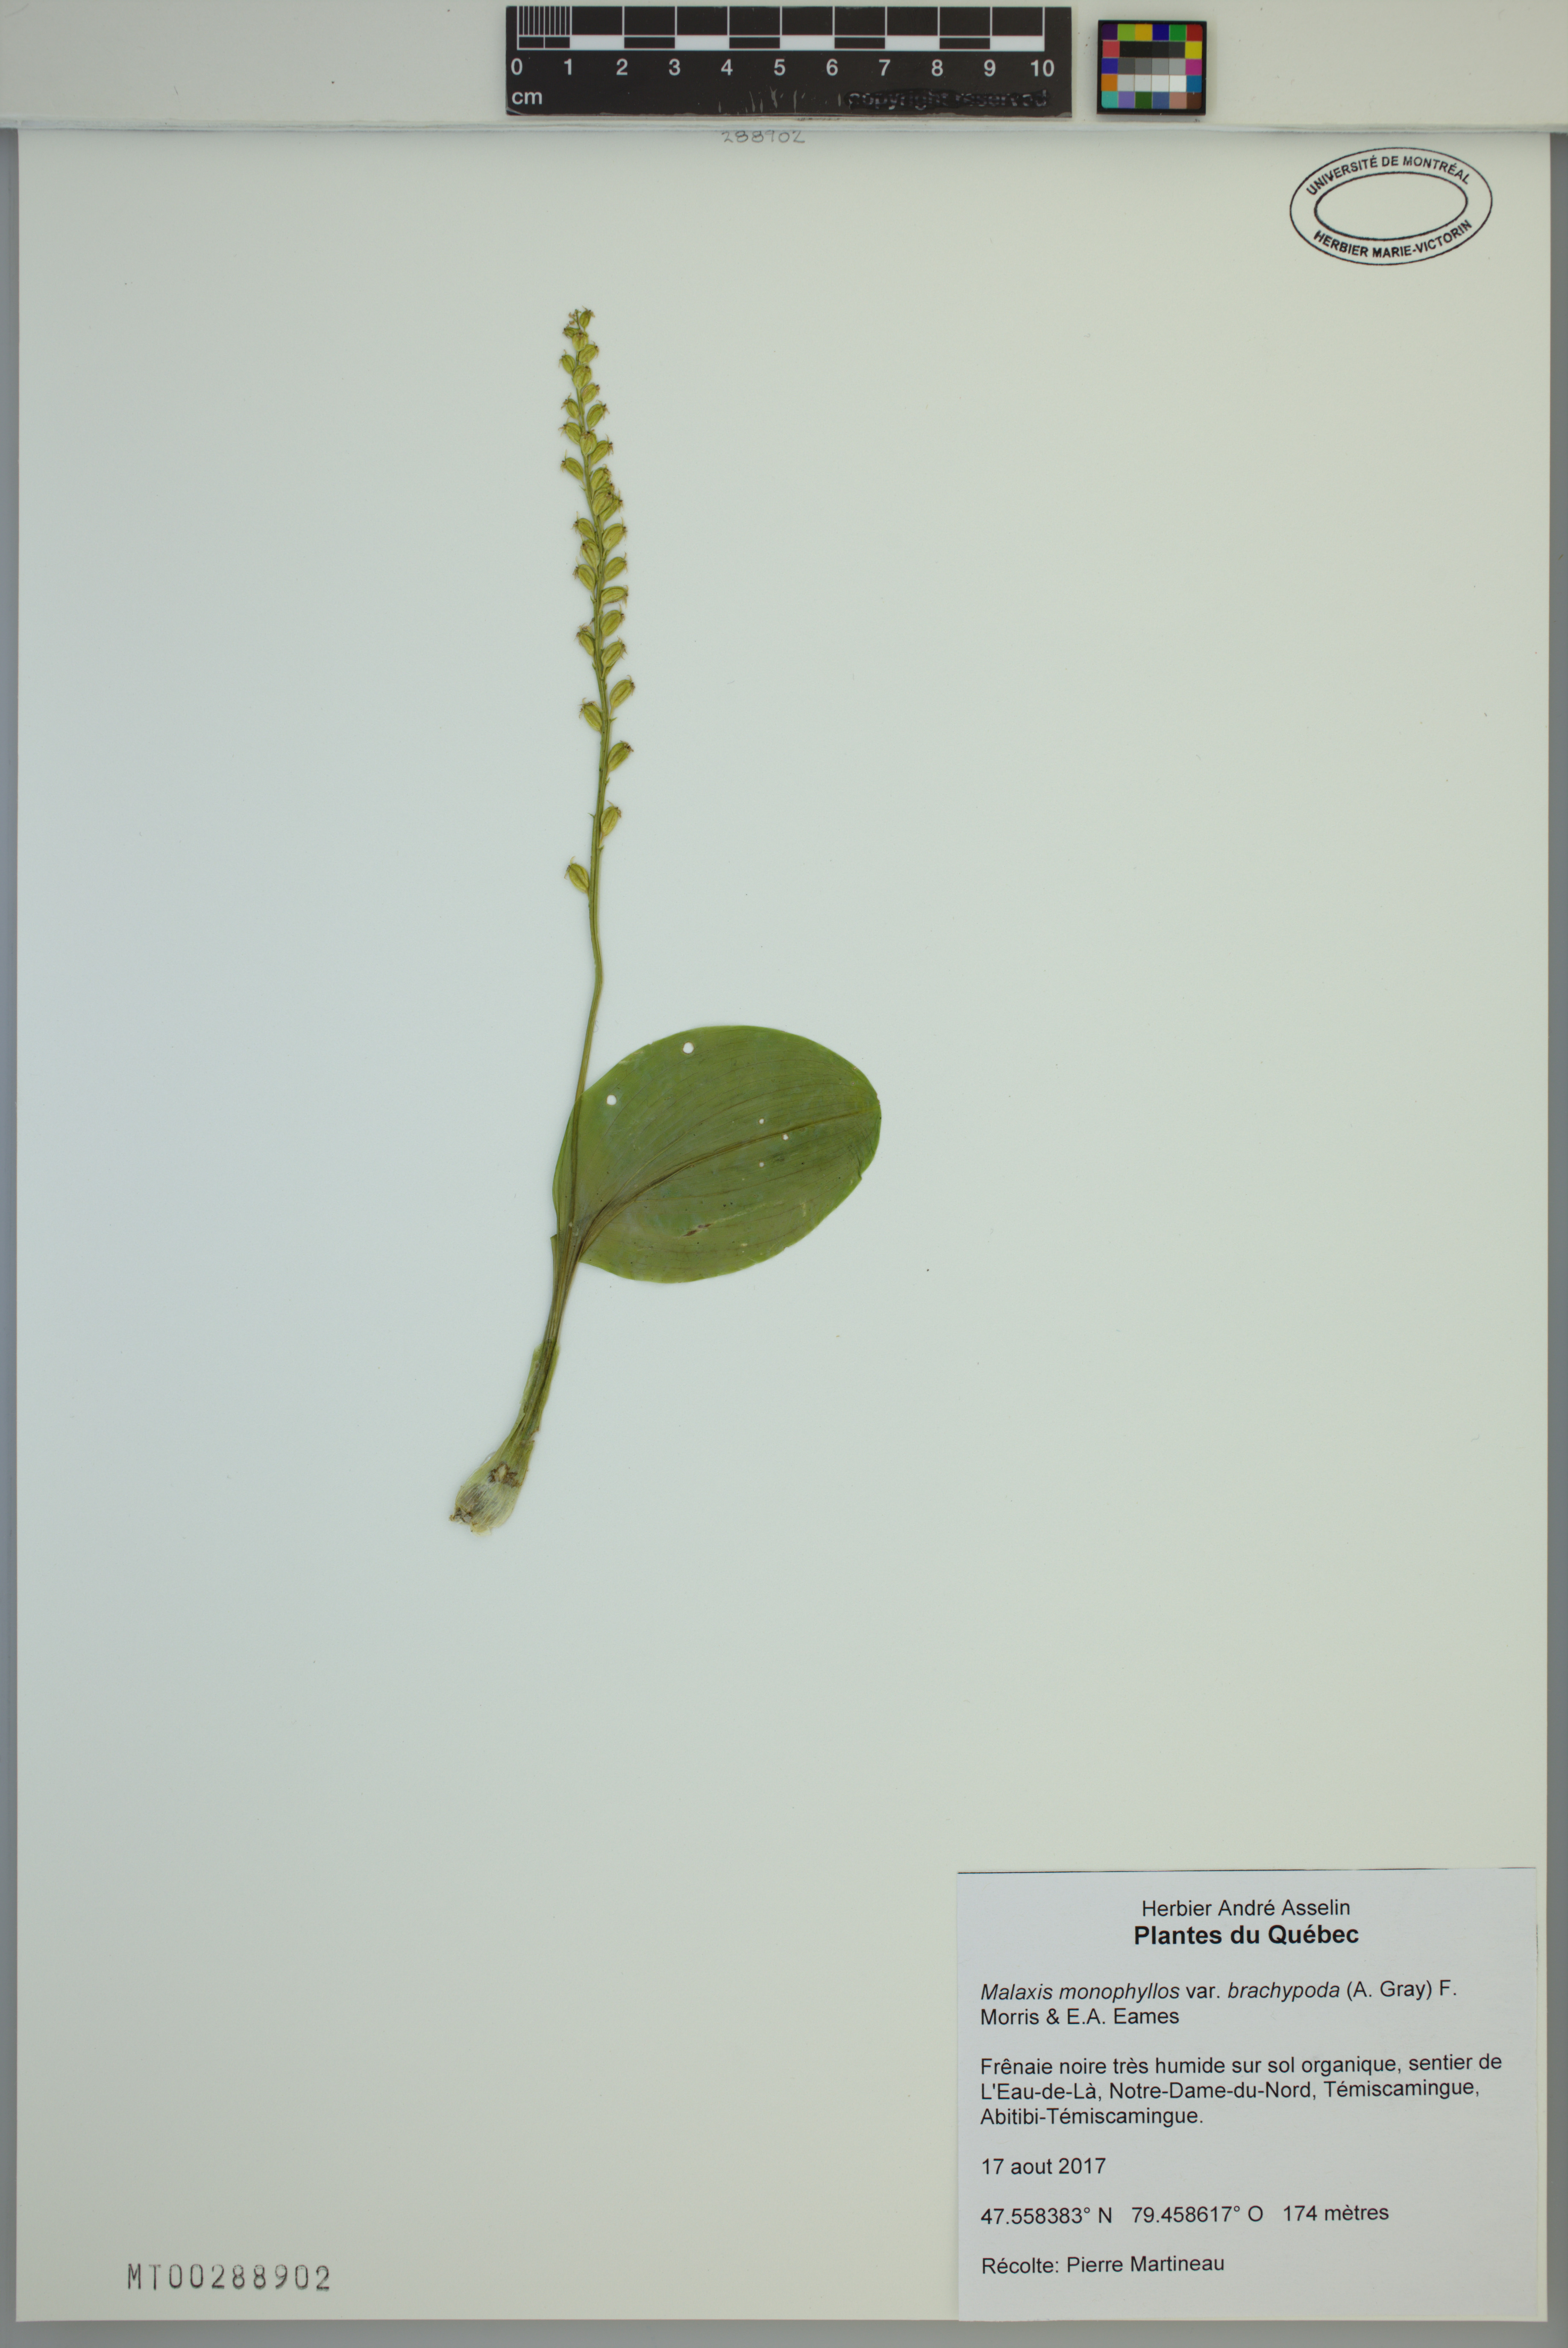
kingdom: Plantae
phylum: Tracheophyta
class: Liliopsida
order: Asparagales
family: Orchidaceae
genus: Malaxis
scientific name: Malaxis monophyllos
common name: White adder's-mouth
